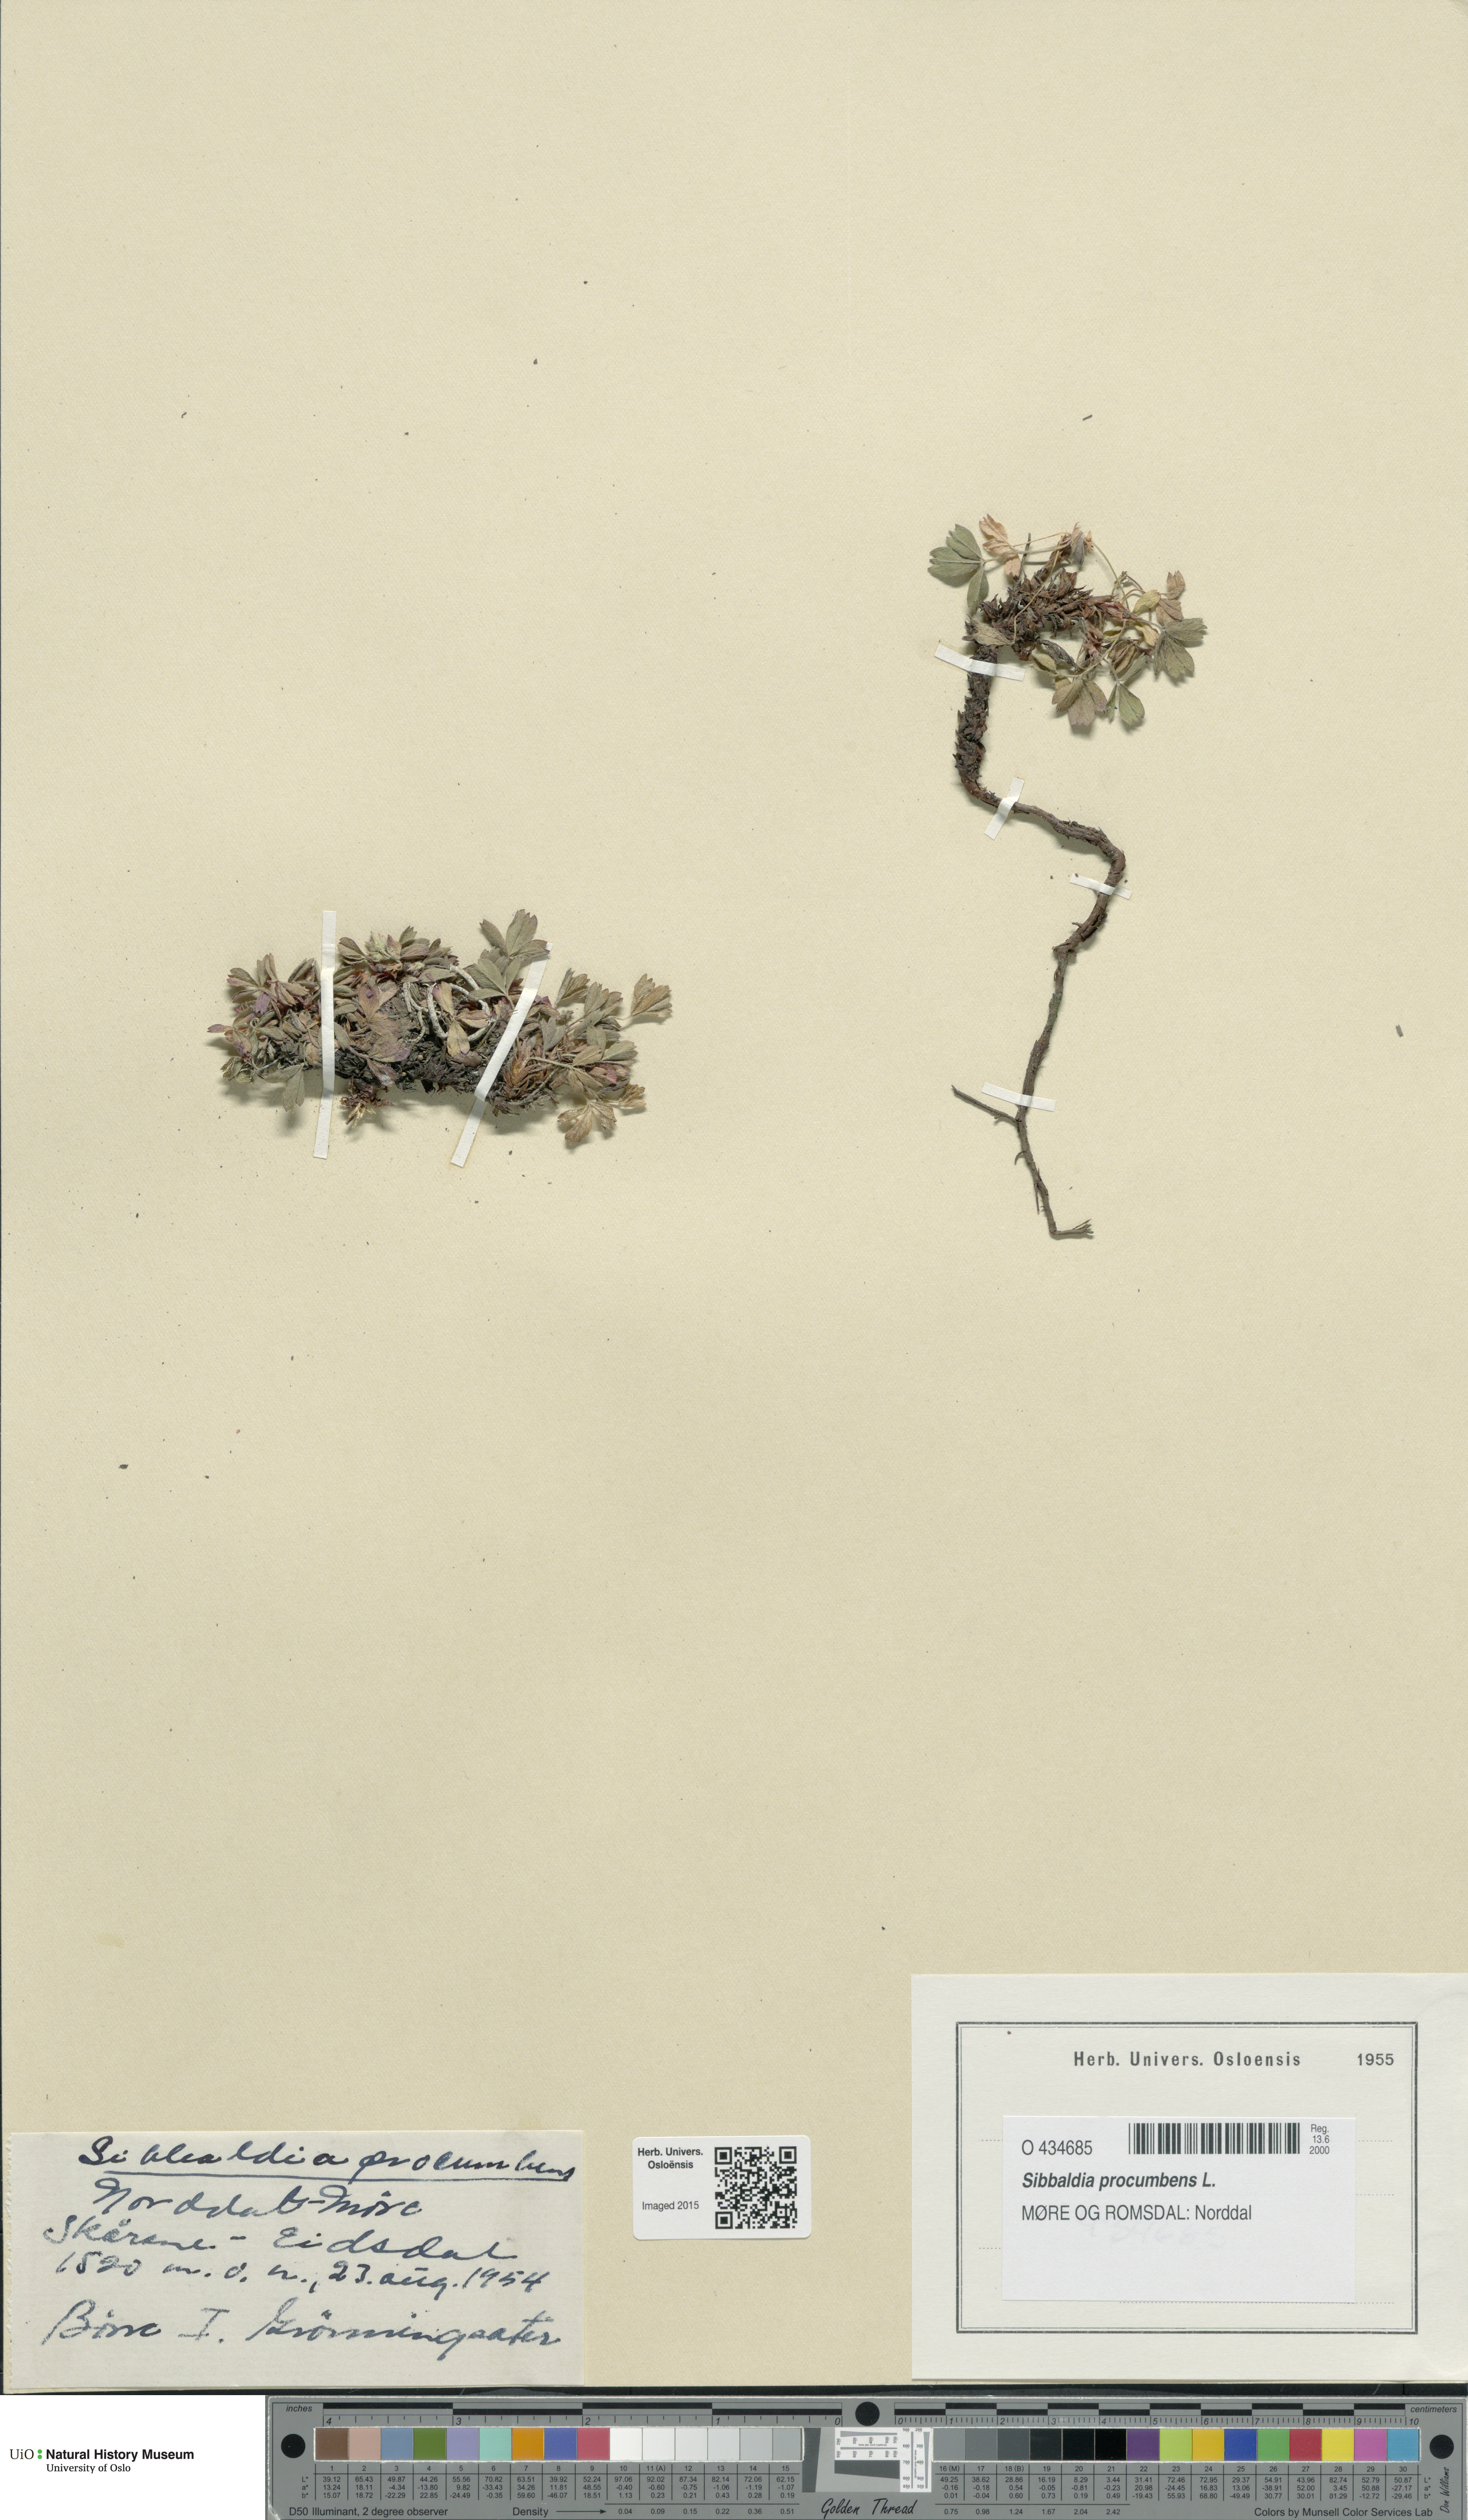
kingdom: Plantae
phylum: Tracheophyta
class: Magnoliopsida
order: Rosales
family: Rosaceae
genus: Sibbaldia
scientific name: Sibbaldia procumbens
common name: Creeping sibbaldia
